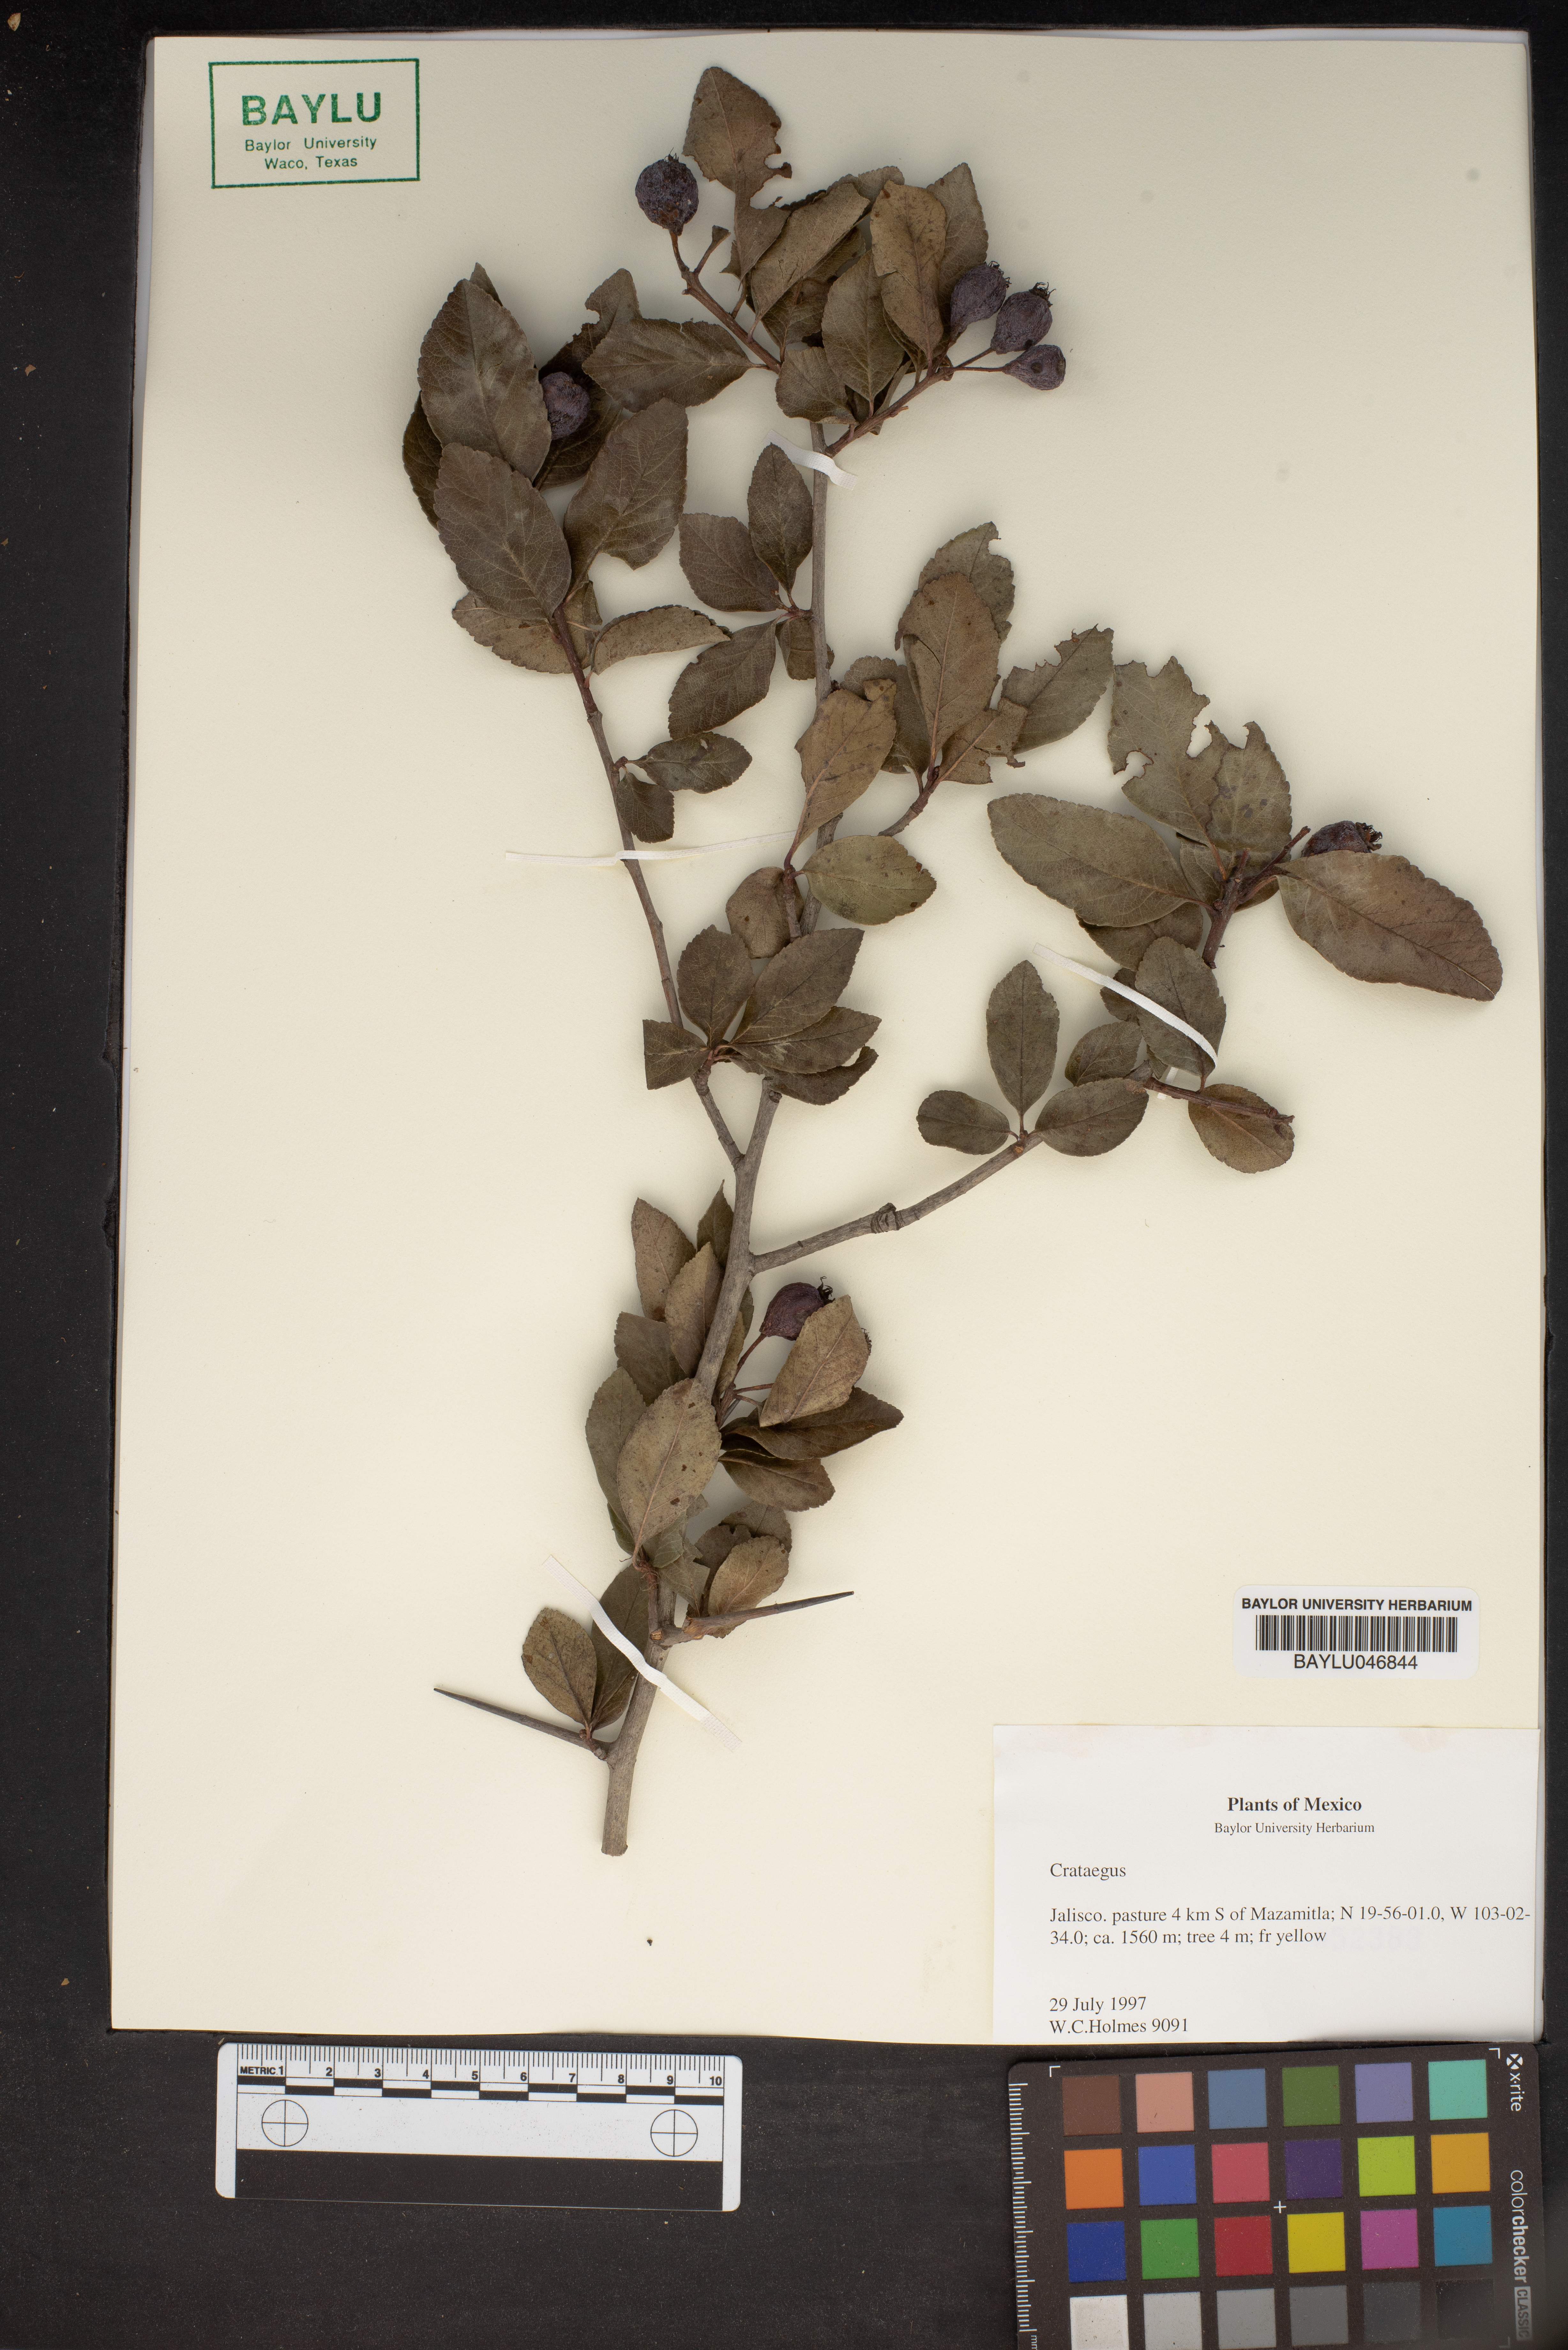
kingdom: Plantae
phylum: Tracheophyta
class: Magnoliopsida
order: Rosales
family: Rosaceae
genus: Crataegus
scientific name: Crataegus
